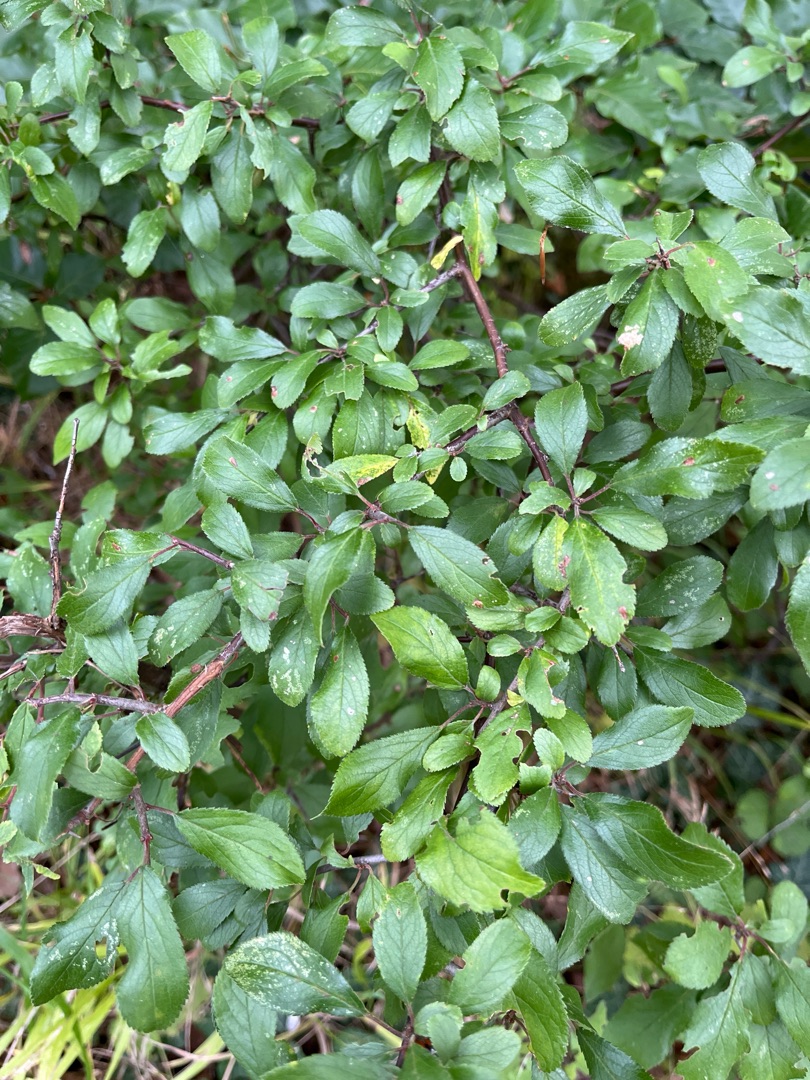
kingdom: Plantae
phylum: Tracheophyta
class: Magnoliopsida
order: Rosales
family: Rosaceae
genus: Prunus
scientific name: Prunus spinosa
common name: Slåen
